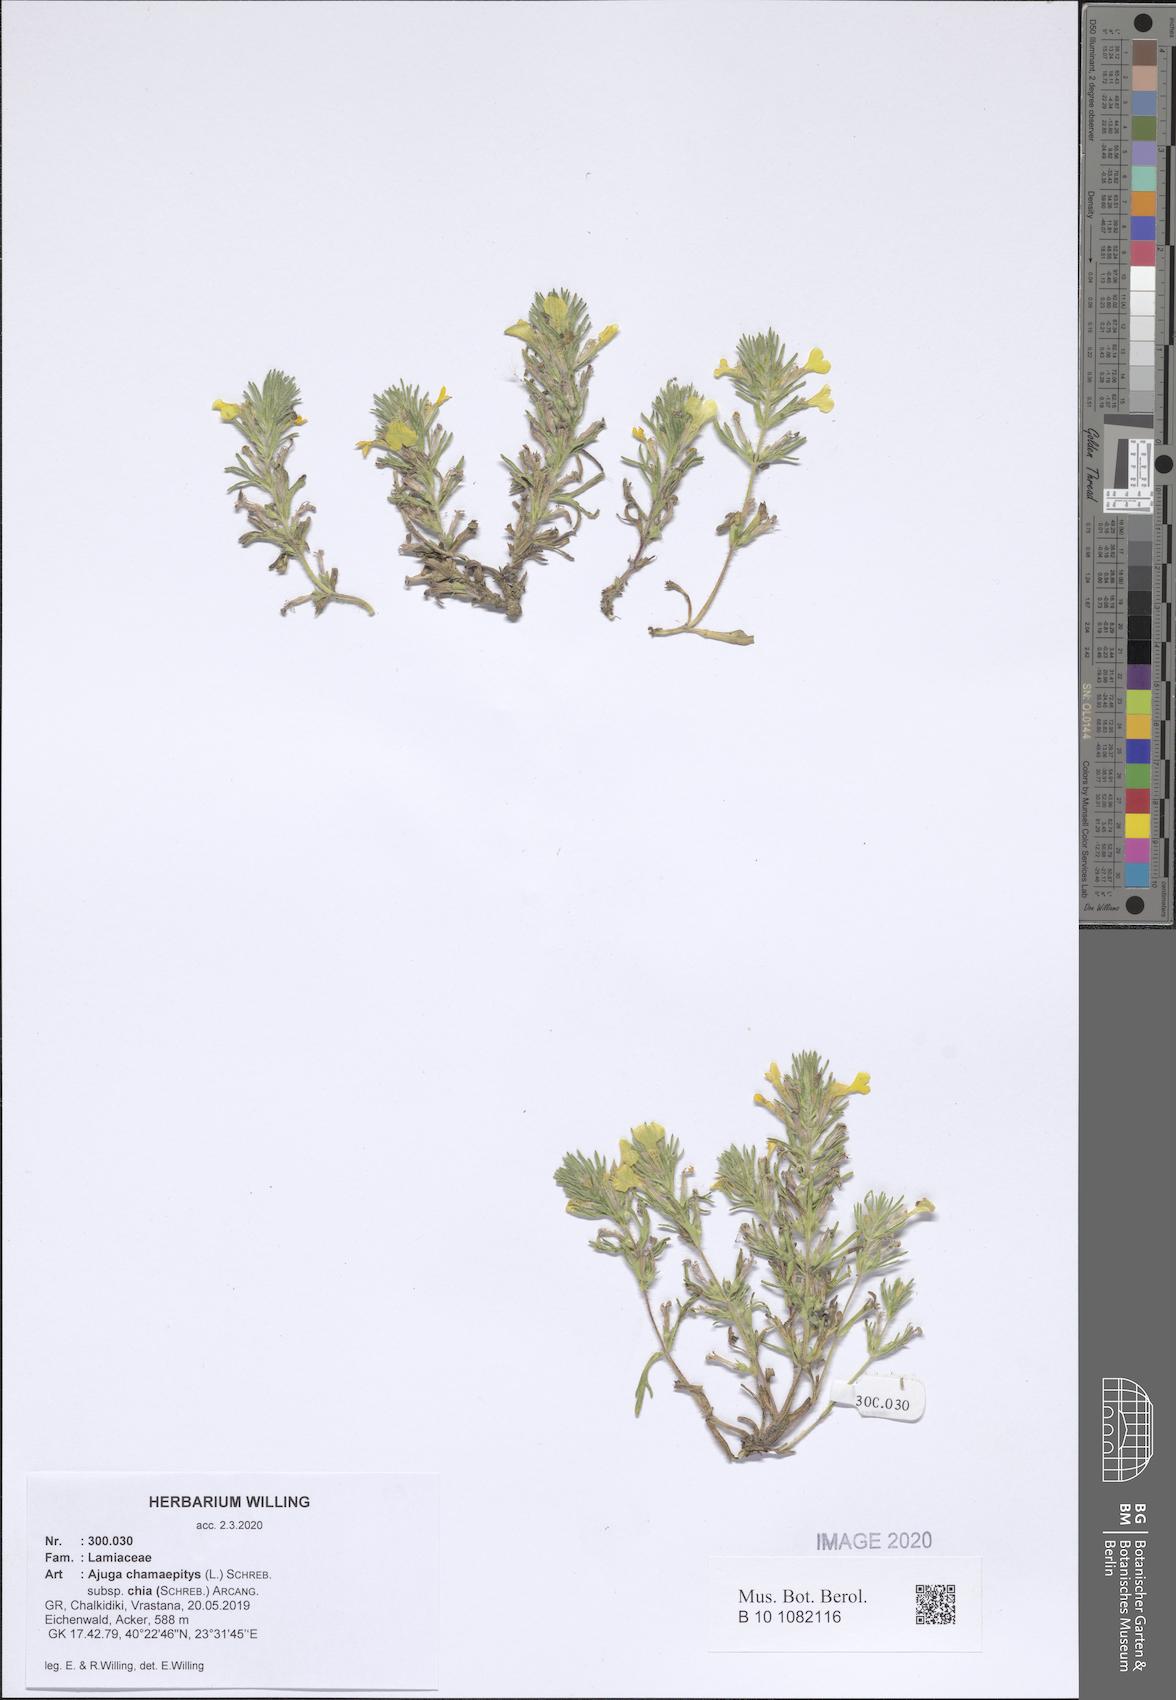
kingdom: Plantae
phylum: Tracheophyta
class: Magnoliopsida
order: Lamiales
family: Lamiaceae
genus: Ajuga
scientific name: Ajuga chamaepitys
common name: Ground-pine
